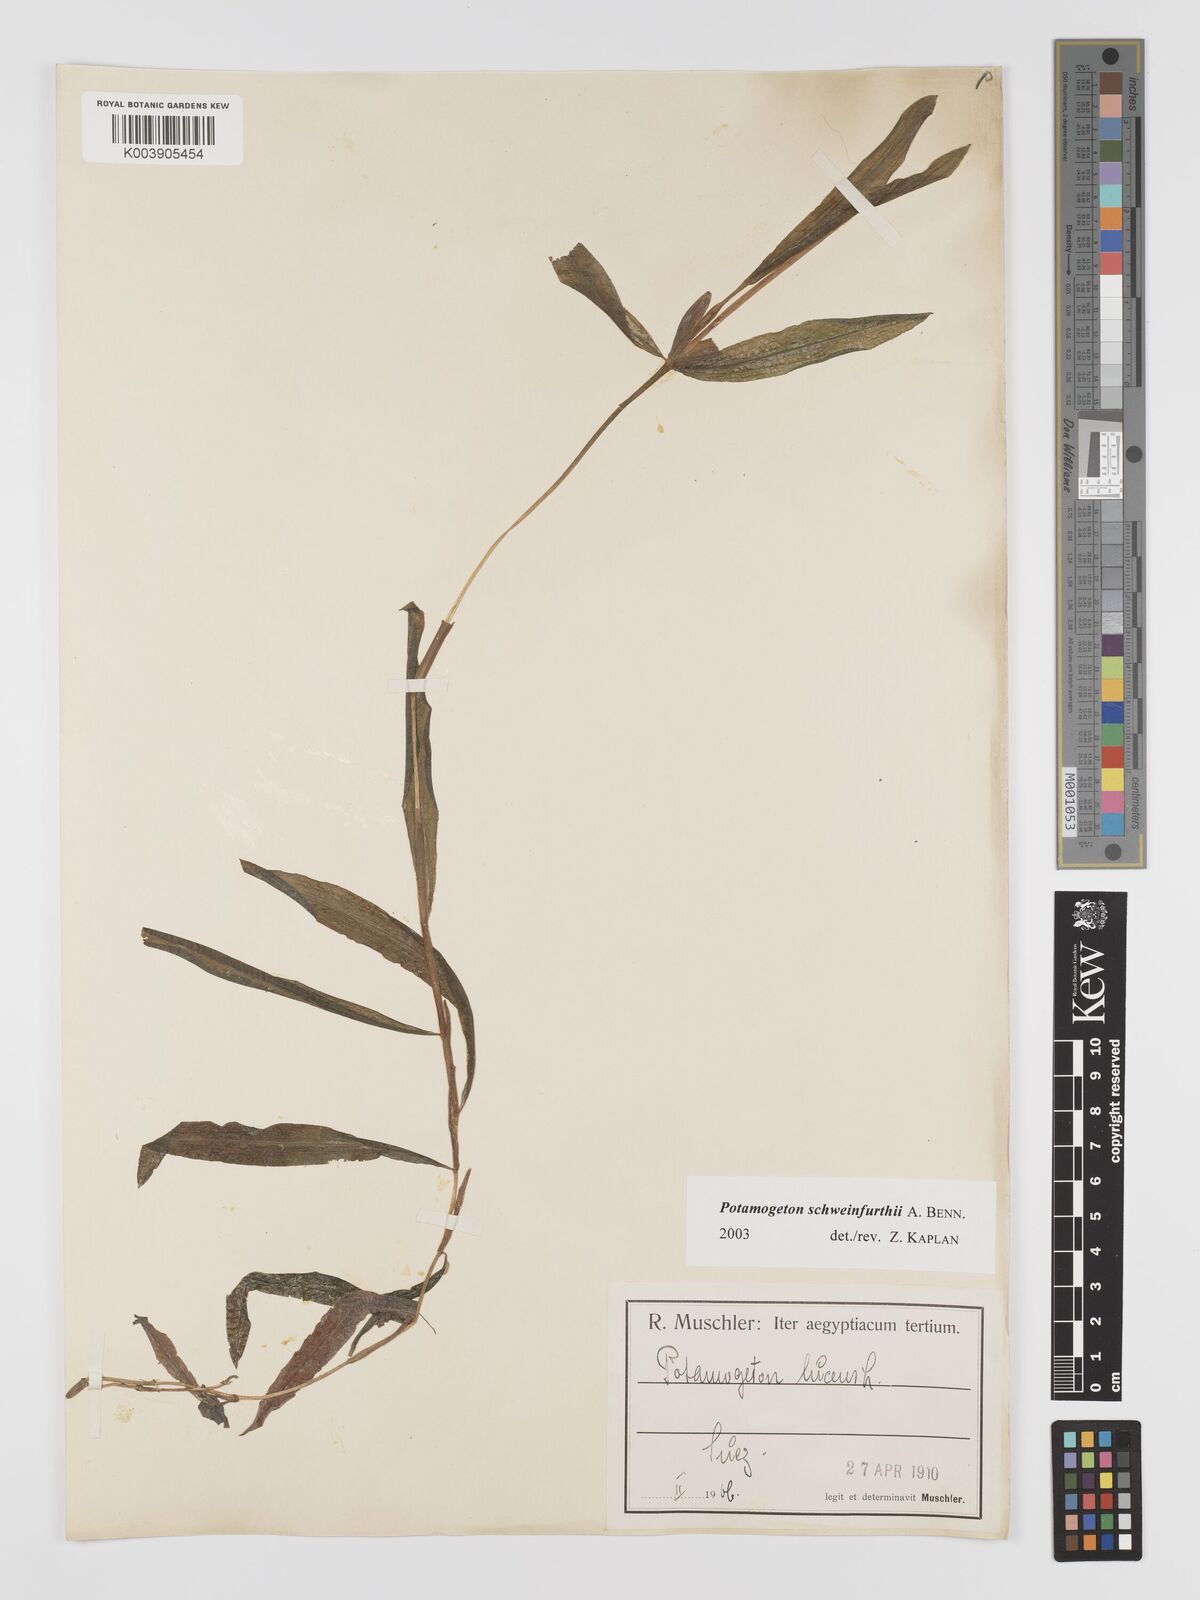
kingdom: Plantae
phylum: Tracheophyta
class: Liliopsida
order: Alismatales
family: Potamogetonaceae
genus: Potamogeton
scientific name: Potamogeton schweinfurthii
